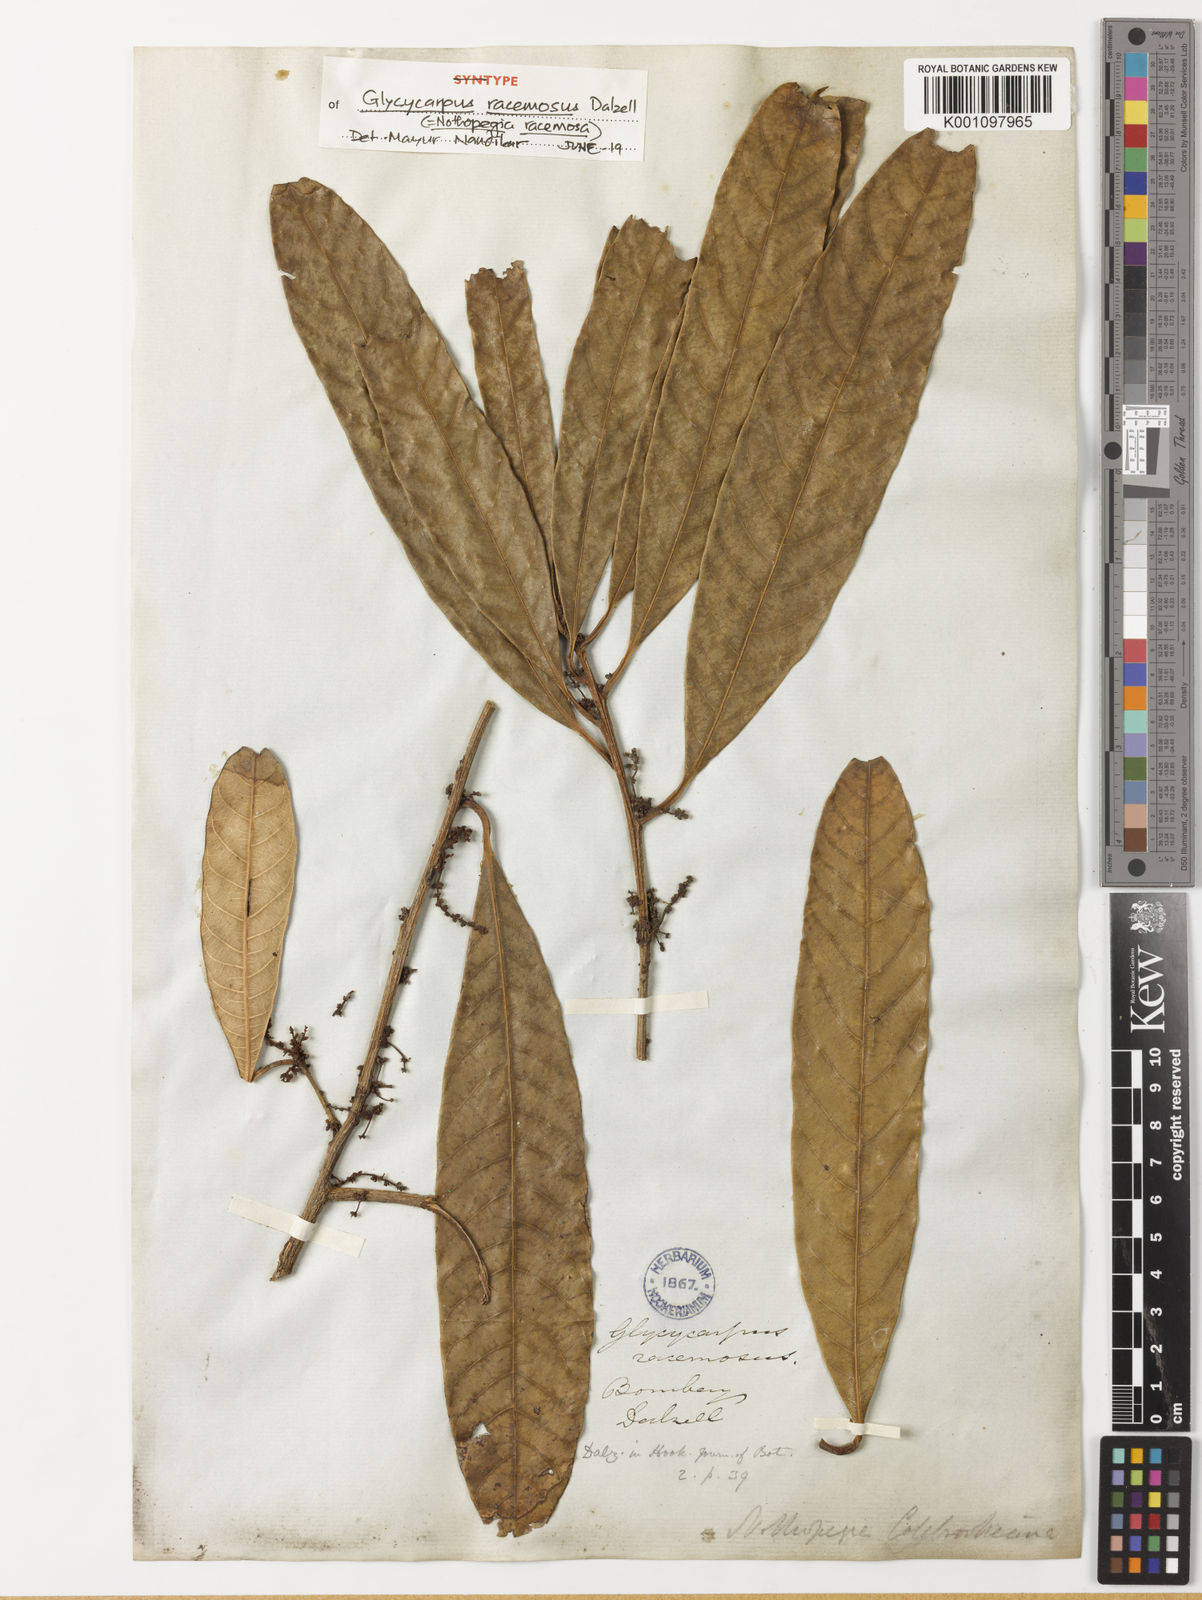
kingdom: Plantae
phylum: Tracheophyta
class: Magnoliopsida
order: Sapindales
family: Anacardiaceae
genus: Nothopegia
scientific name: Nothopegia castaneifolia
